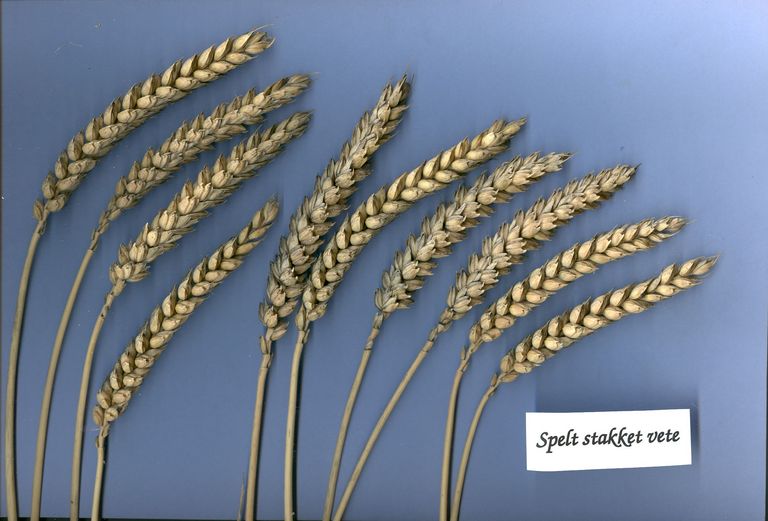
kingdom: Plantae
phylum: Tracheophyta
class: Liliopsida
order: Poales
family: Poaceae
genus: Triticum
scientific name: Triticum aestivum
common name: Common wheat
